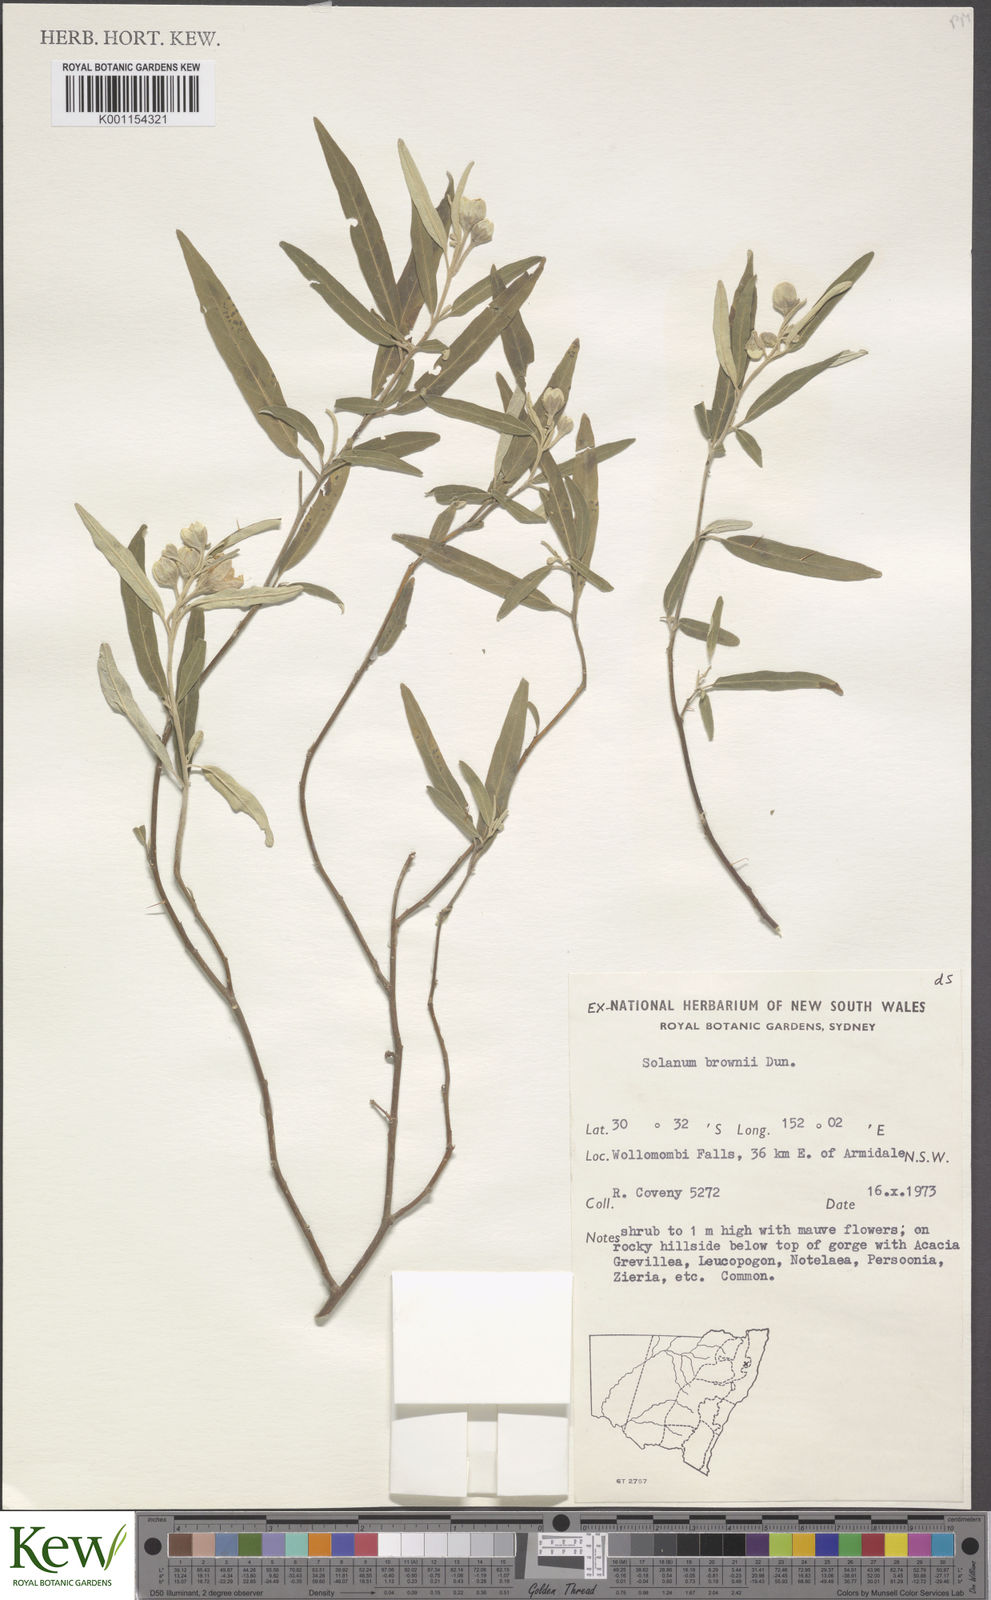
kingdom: Plantae
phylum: Tracheophyta
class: Magnoliopsida
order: Solanales
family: Solanaceae
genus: Solanum
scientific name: Solanum ferocissimum
